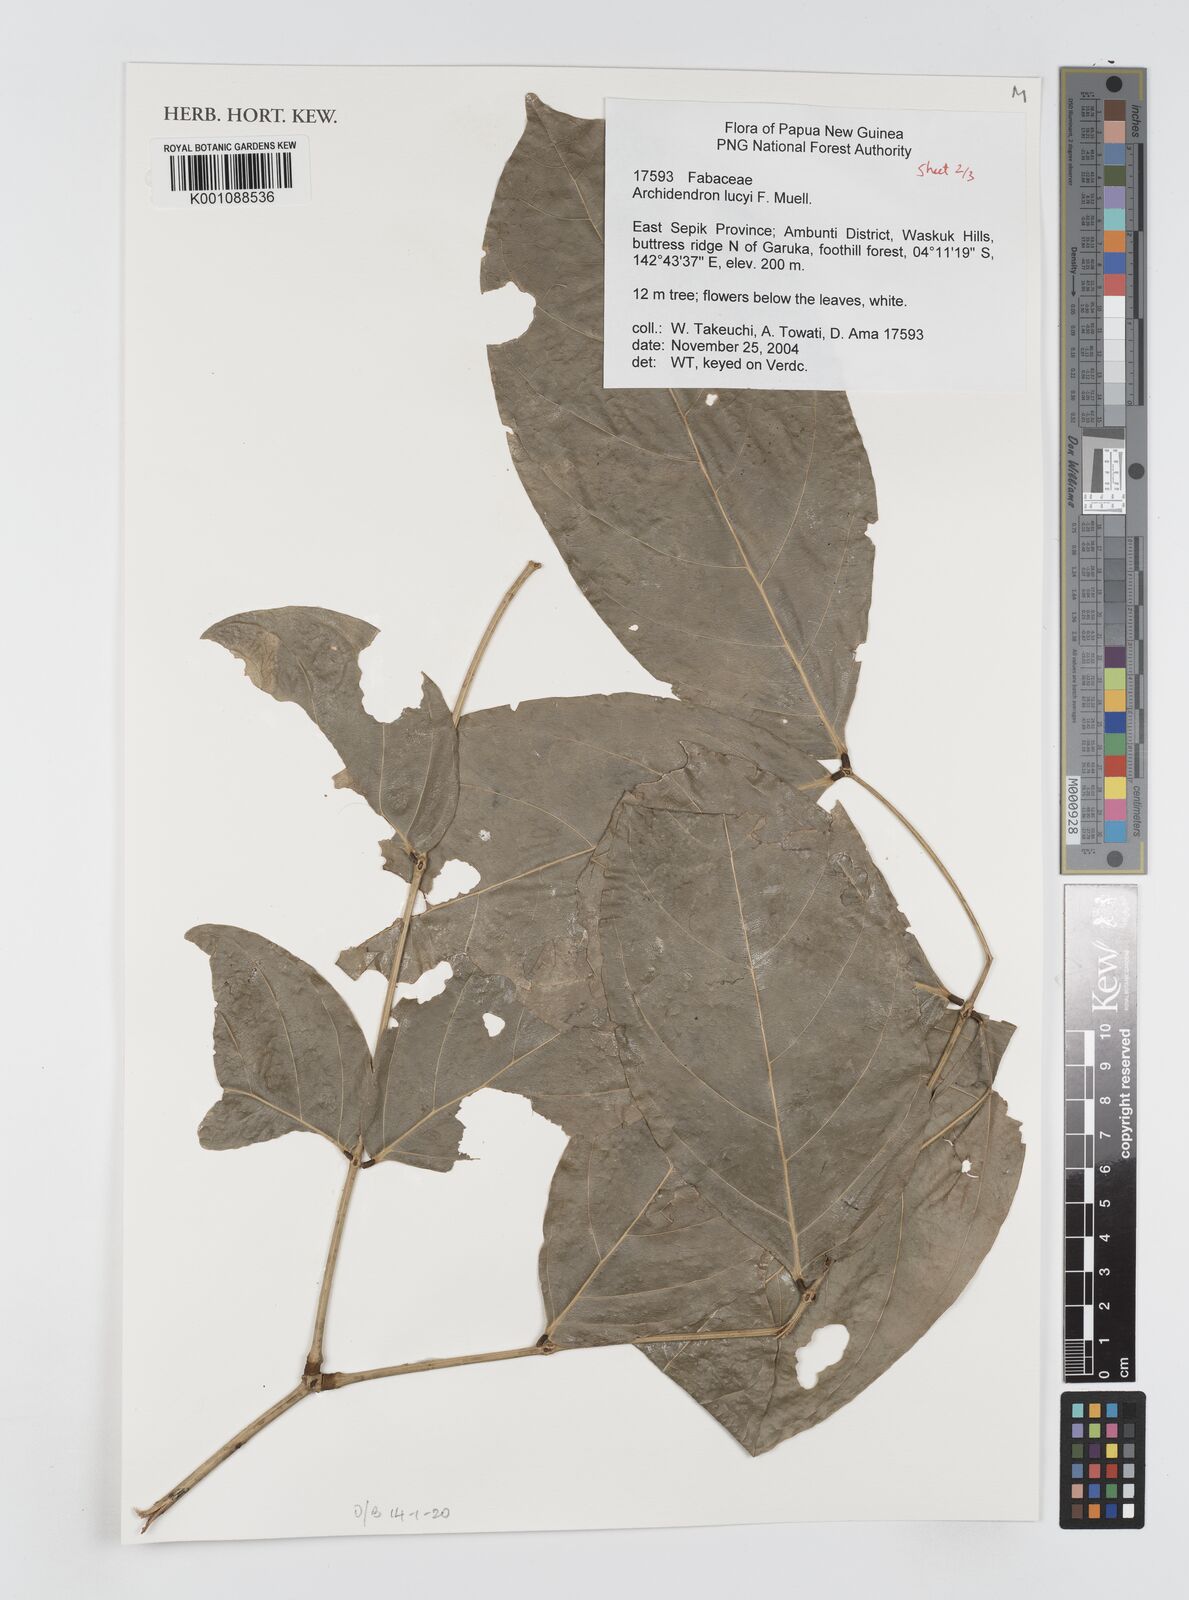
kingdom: Plantae
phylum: Tracheophyta
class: Magnoliopsida
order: Fabales
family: Fabaceae
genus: Archidendron
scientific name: Archidendron lucyi
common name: Scarlet bean
